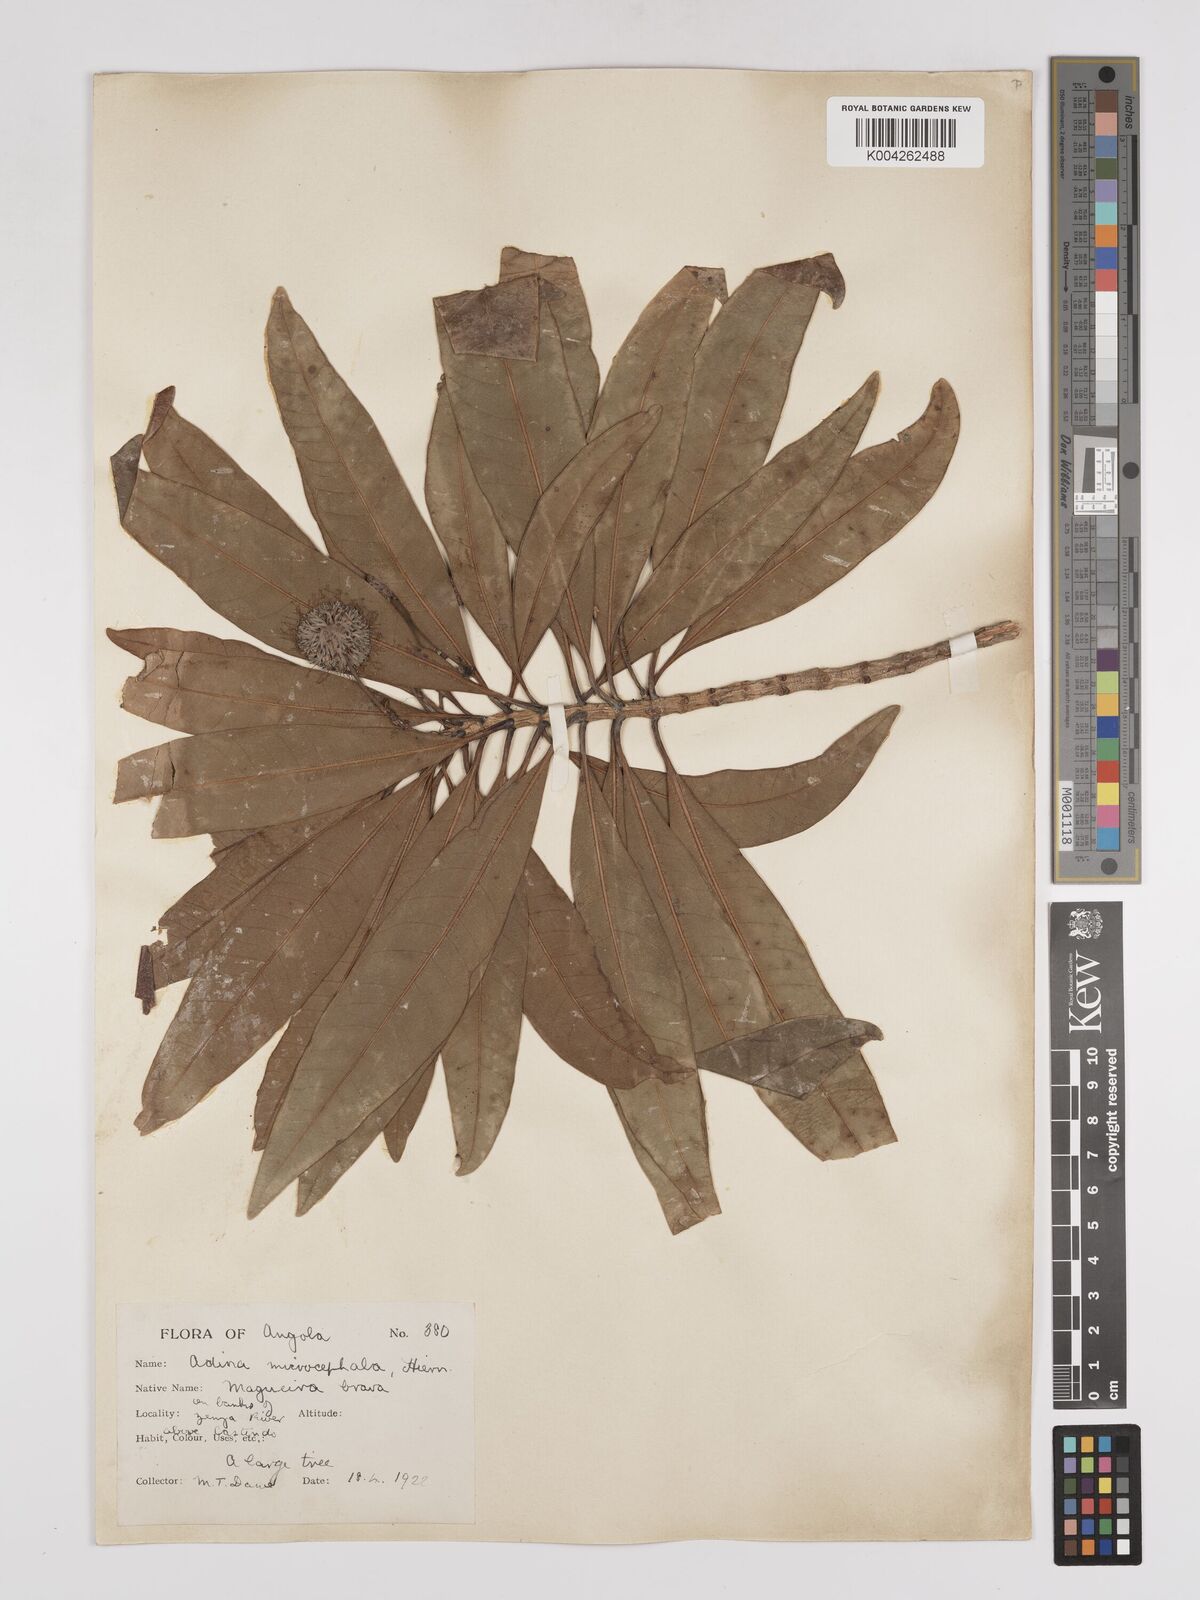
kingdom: Plantae
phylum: Tracheophyta
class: Magnoliopsida
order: Gentianales
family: Rubiaceae
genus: Breonadia
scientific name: Breonadia salicina
